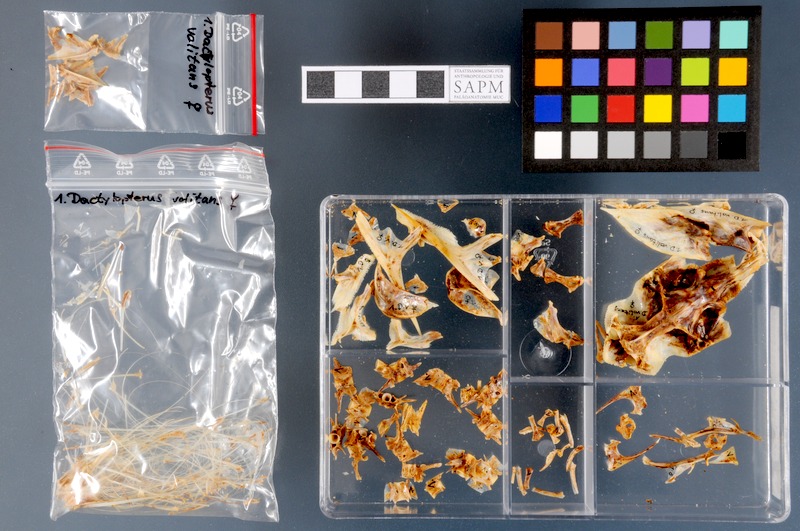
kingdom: Animalia
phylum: Chordata
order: Scorpaeniformes
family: Dactylopteridae
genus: Dactylopterus
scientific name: Dactylopterus volitans
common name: Flying gurnard
